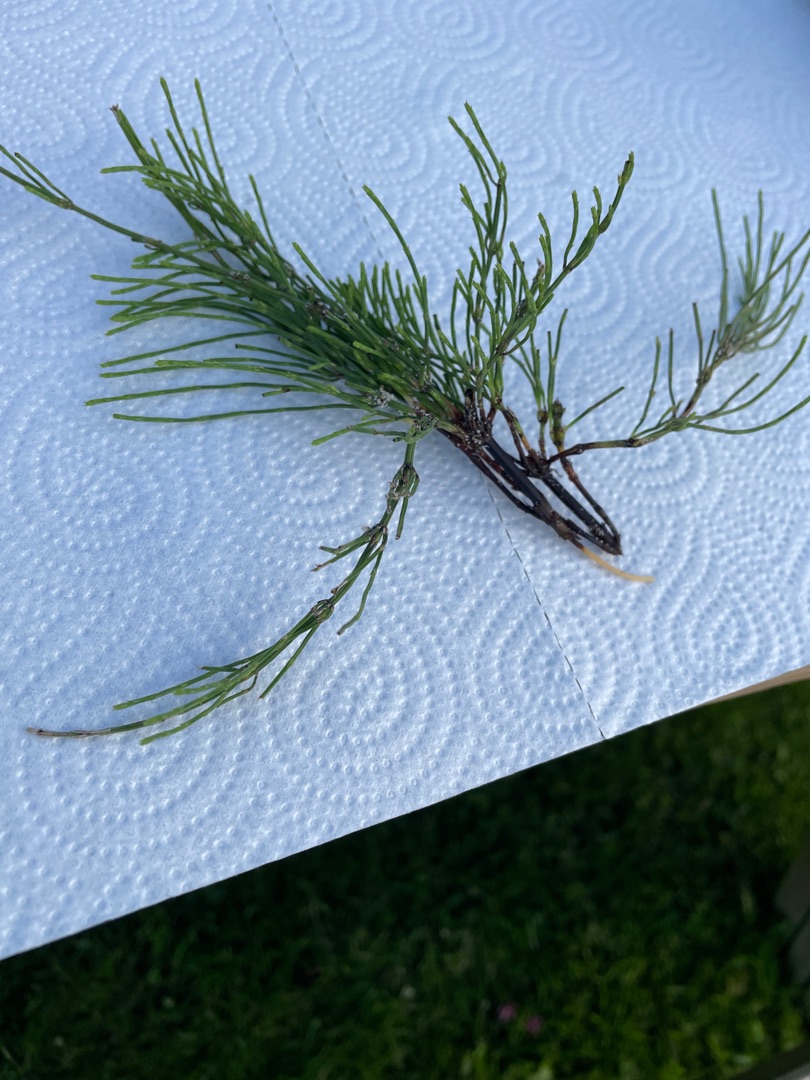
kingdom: Plantae
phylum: Tracheophyta
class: Polypodiopsida
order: Equisetales
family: Equisetaceae
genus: Equisetum
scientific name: Equisetum arvense
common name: Ager-padderok
